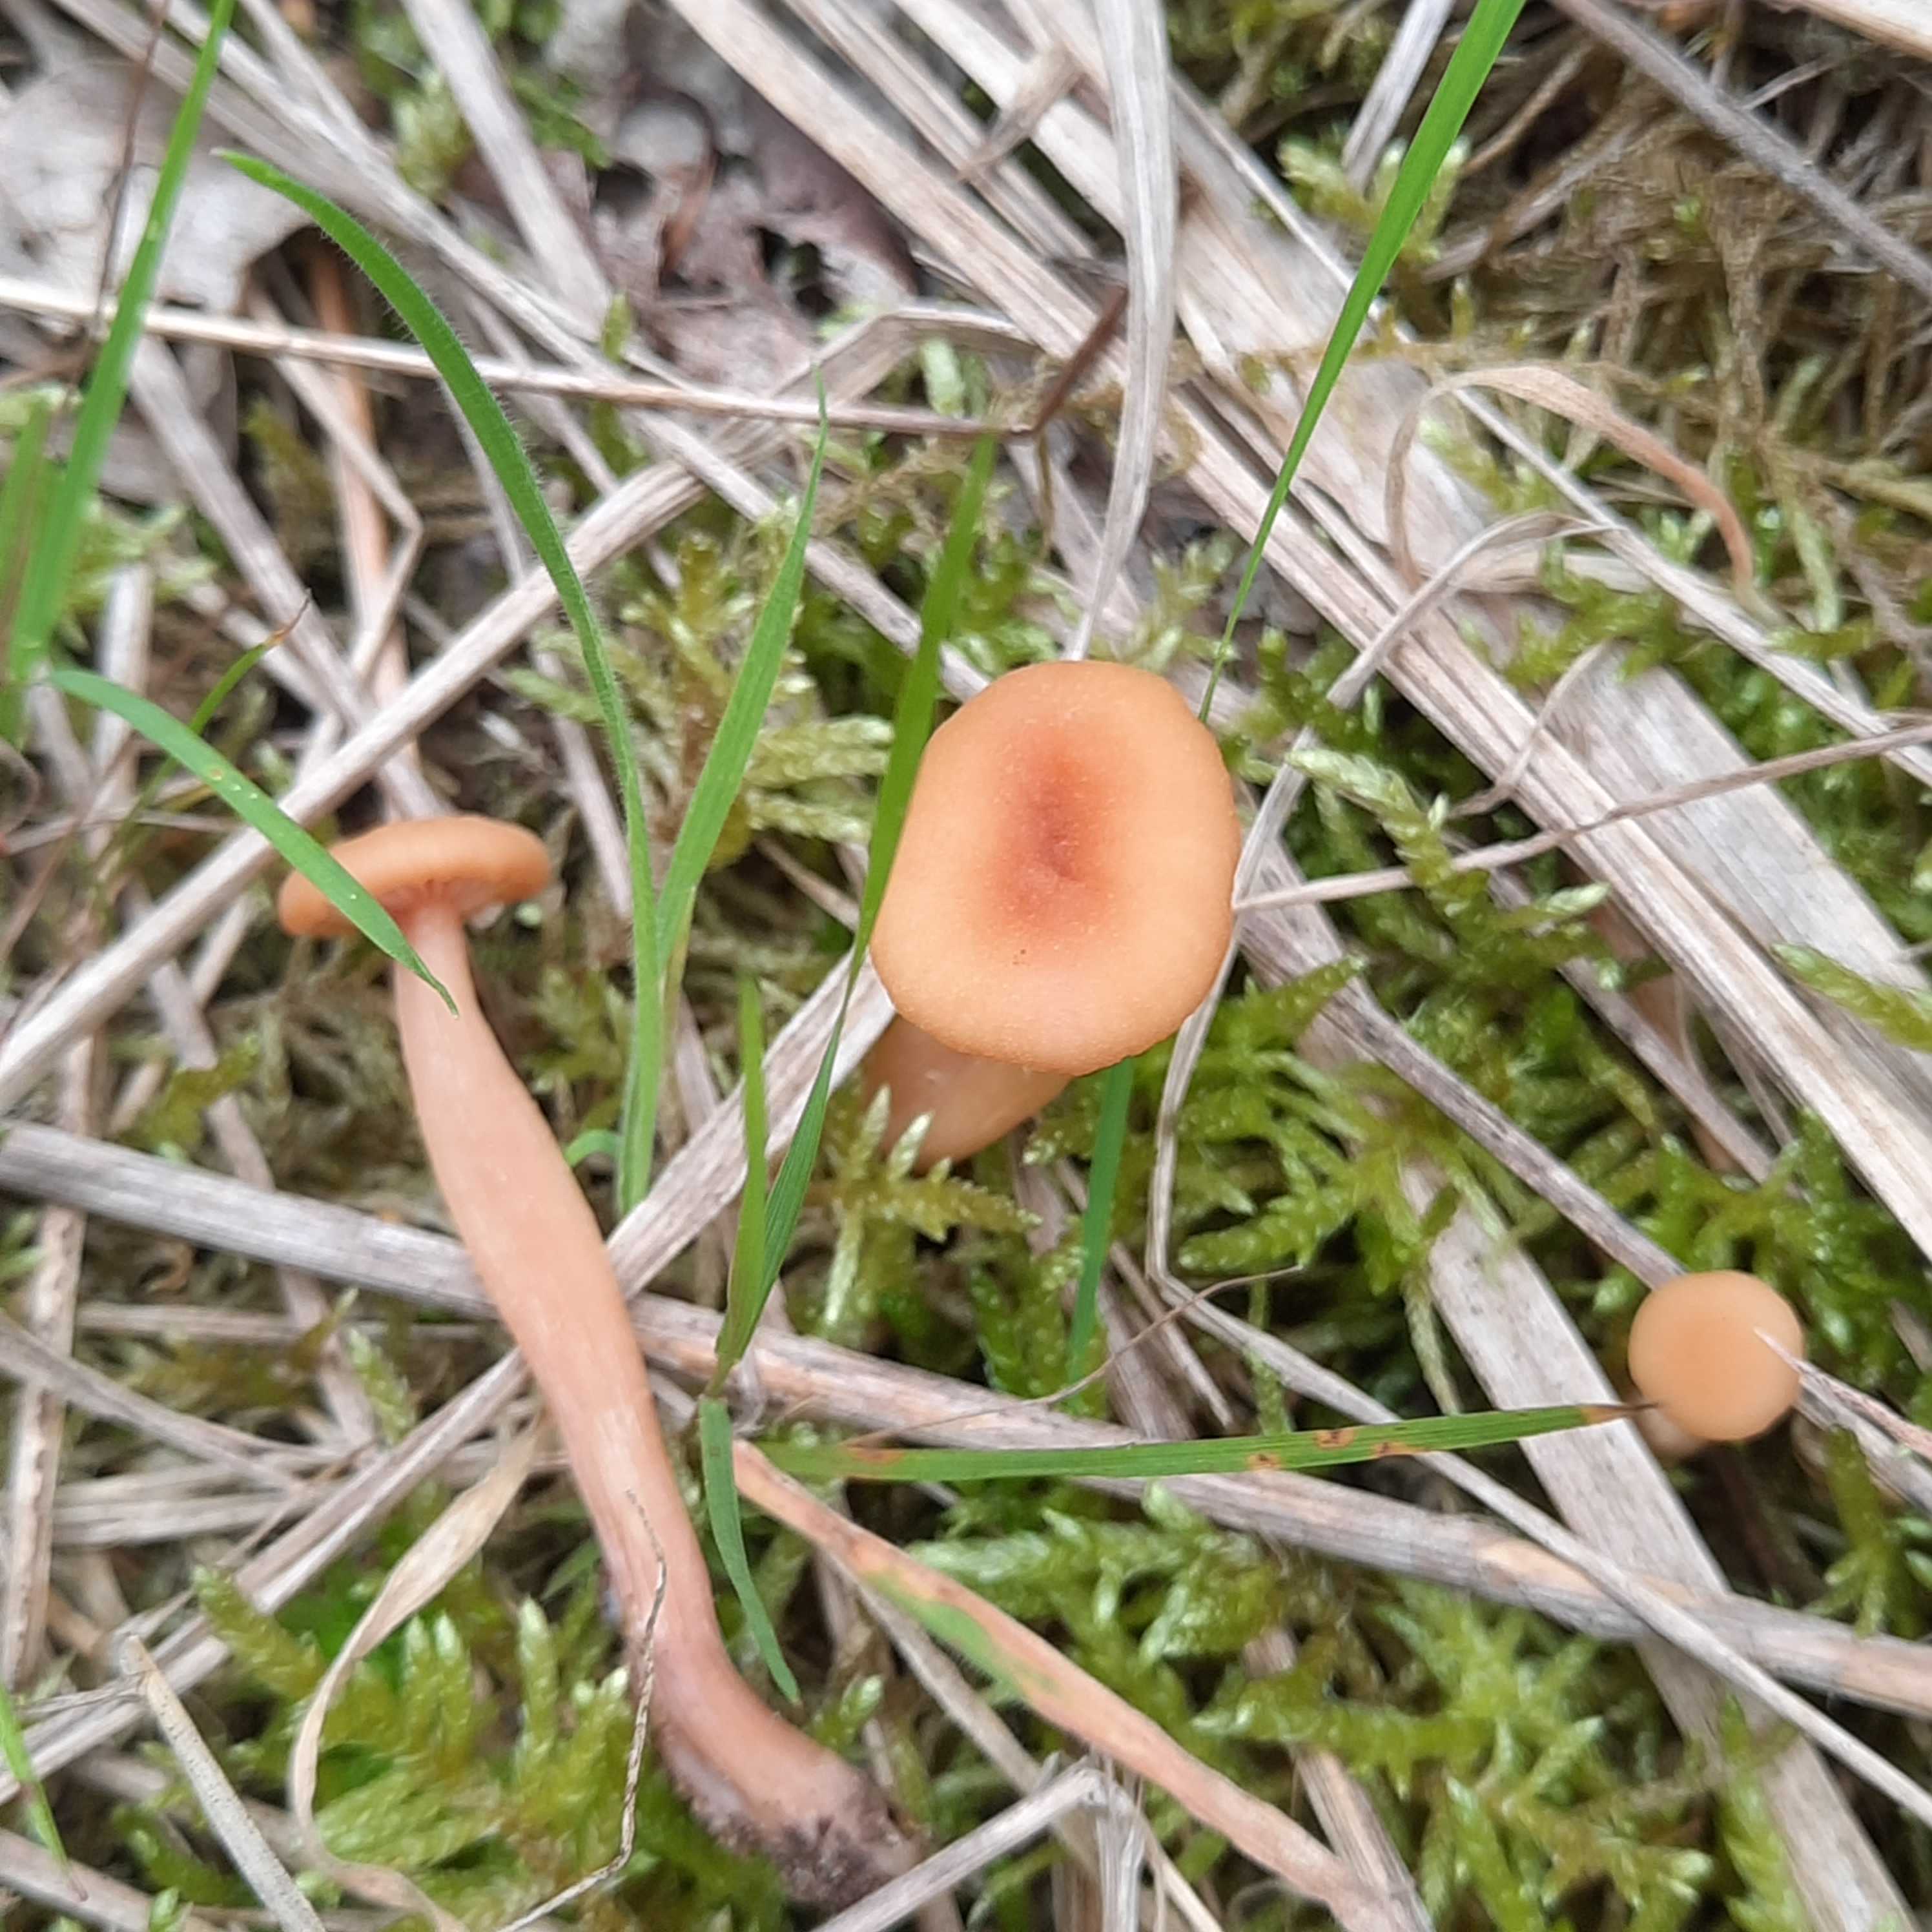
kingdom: Fungi
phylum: Basidiomycota
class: Agaricomycetes
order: Agaricales
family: Hydnangiaceae
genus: Laccaria
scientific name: Laccaria laccata
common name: rød ametysthat
